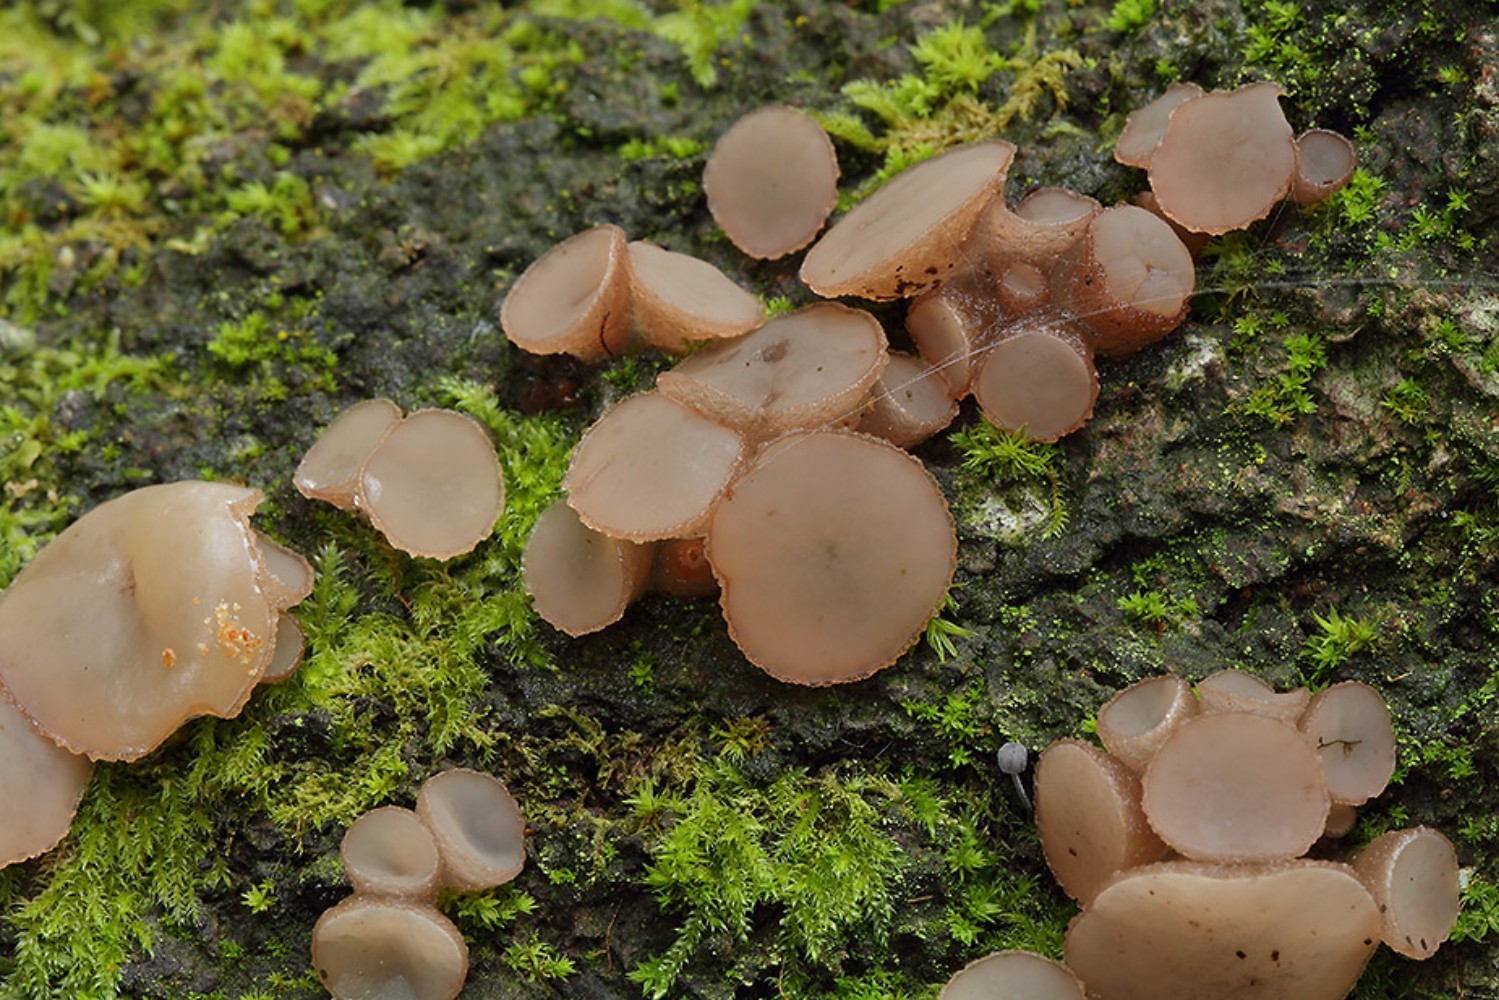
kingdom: Fungi
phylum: Ascomycota
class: Leotiomycetes
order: Helotiales
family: Gelatinodiscaceae
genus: Neobulgaria
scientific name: Neobulgaria pura
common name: bleg bævreskive
